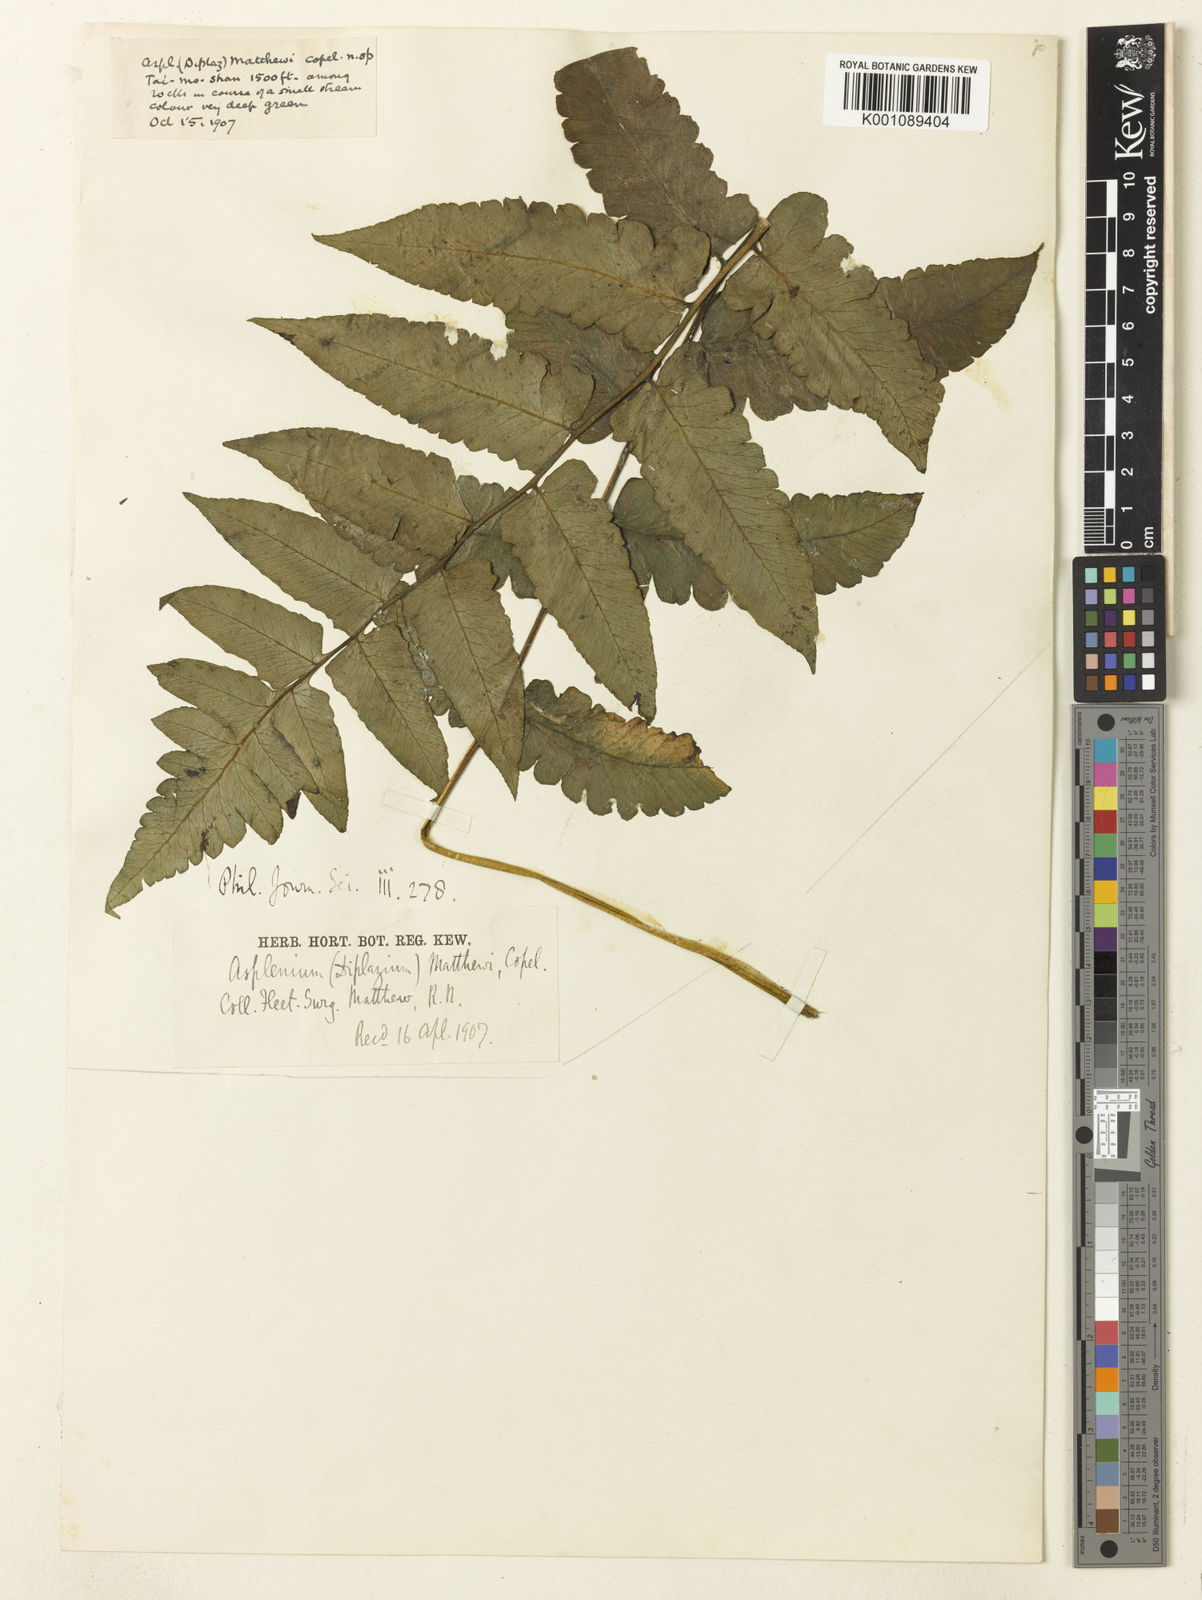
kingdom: Plantae
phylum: Tracheophyta
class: Polypodiopsida
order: Polypodiales
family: Athyriaceae
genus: Diplazium
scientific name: Diplazium stenochlamys
